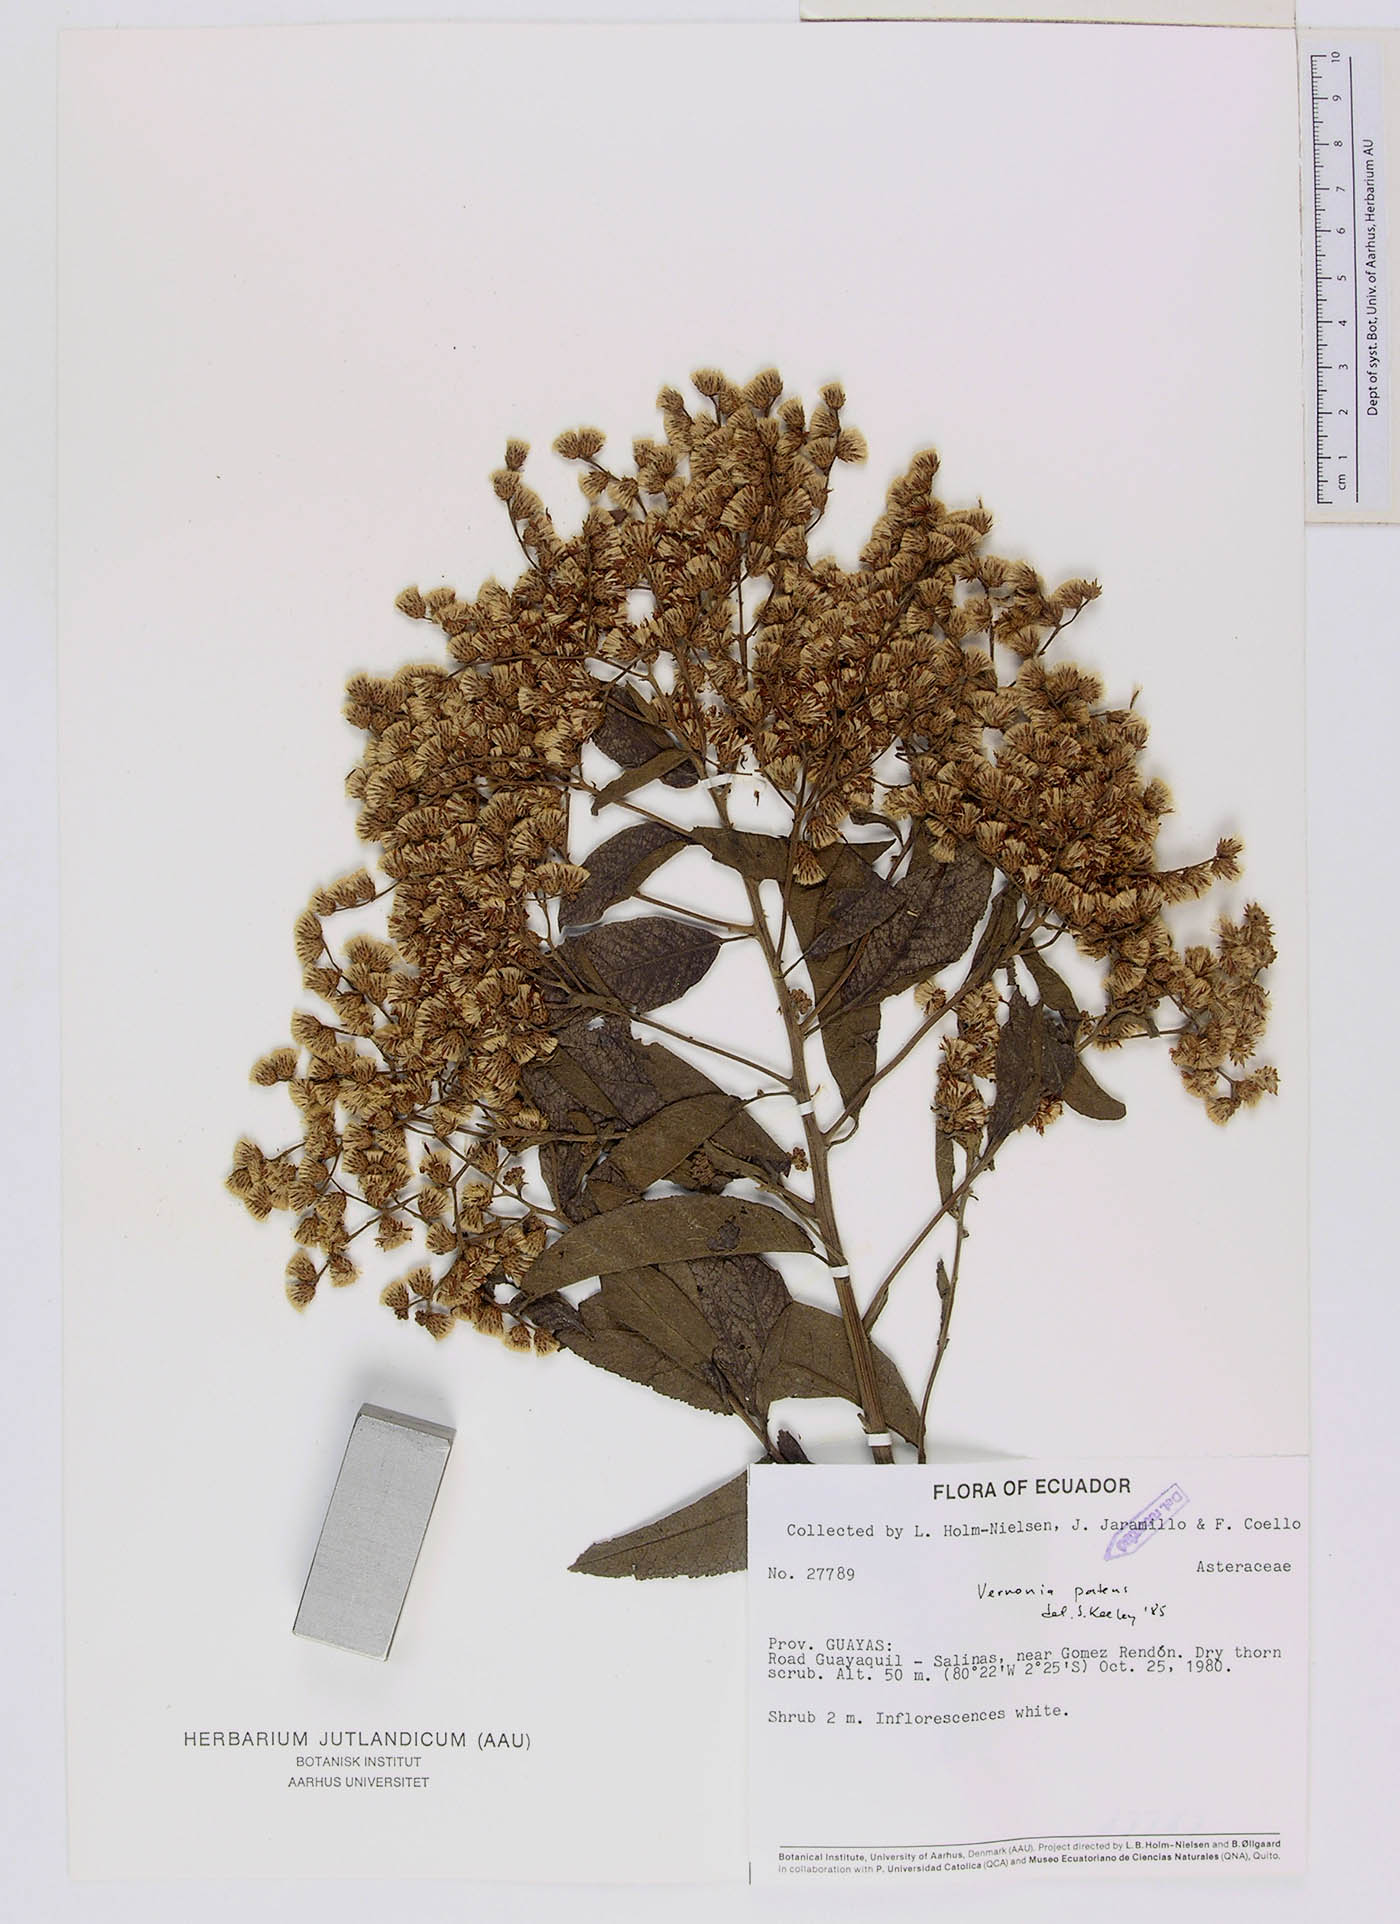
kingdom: Plantae
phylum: Tracheophyta
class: Magnoliopsida
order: Asterales
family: Asteraceae
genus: Vernonanthura
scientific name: Vernonanthura patens
